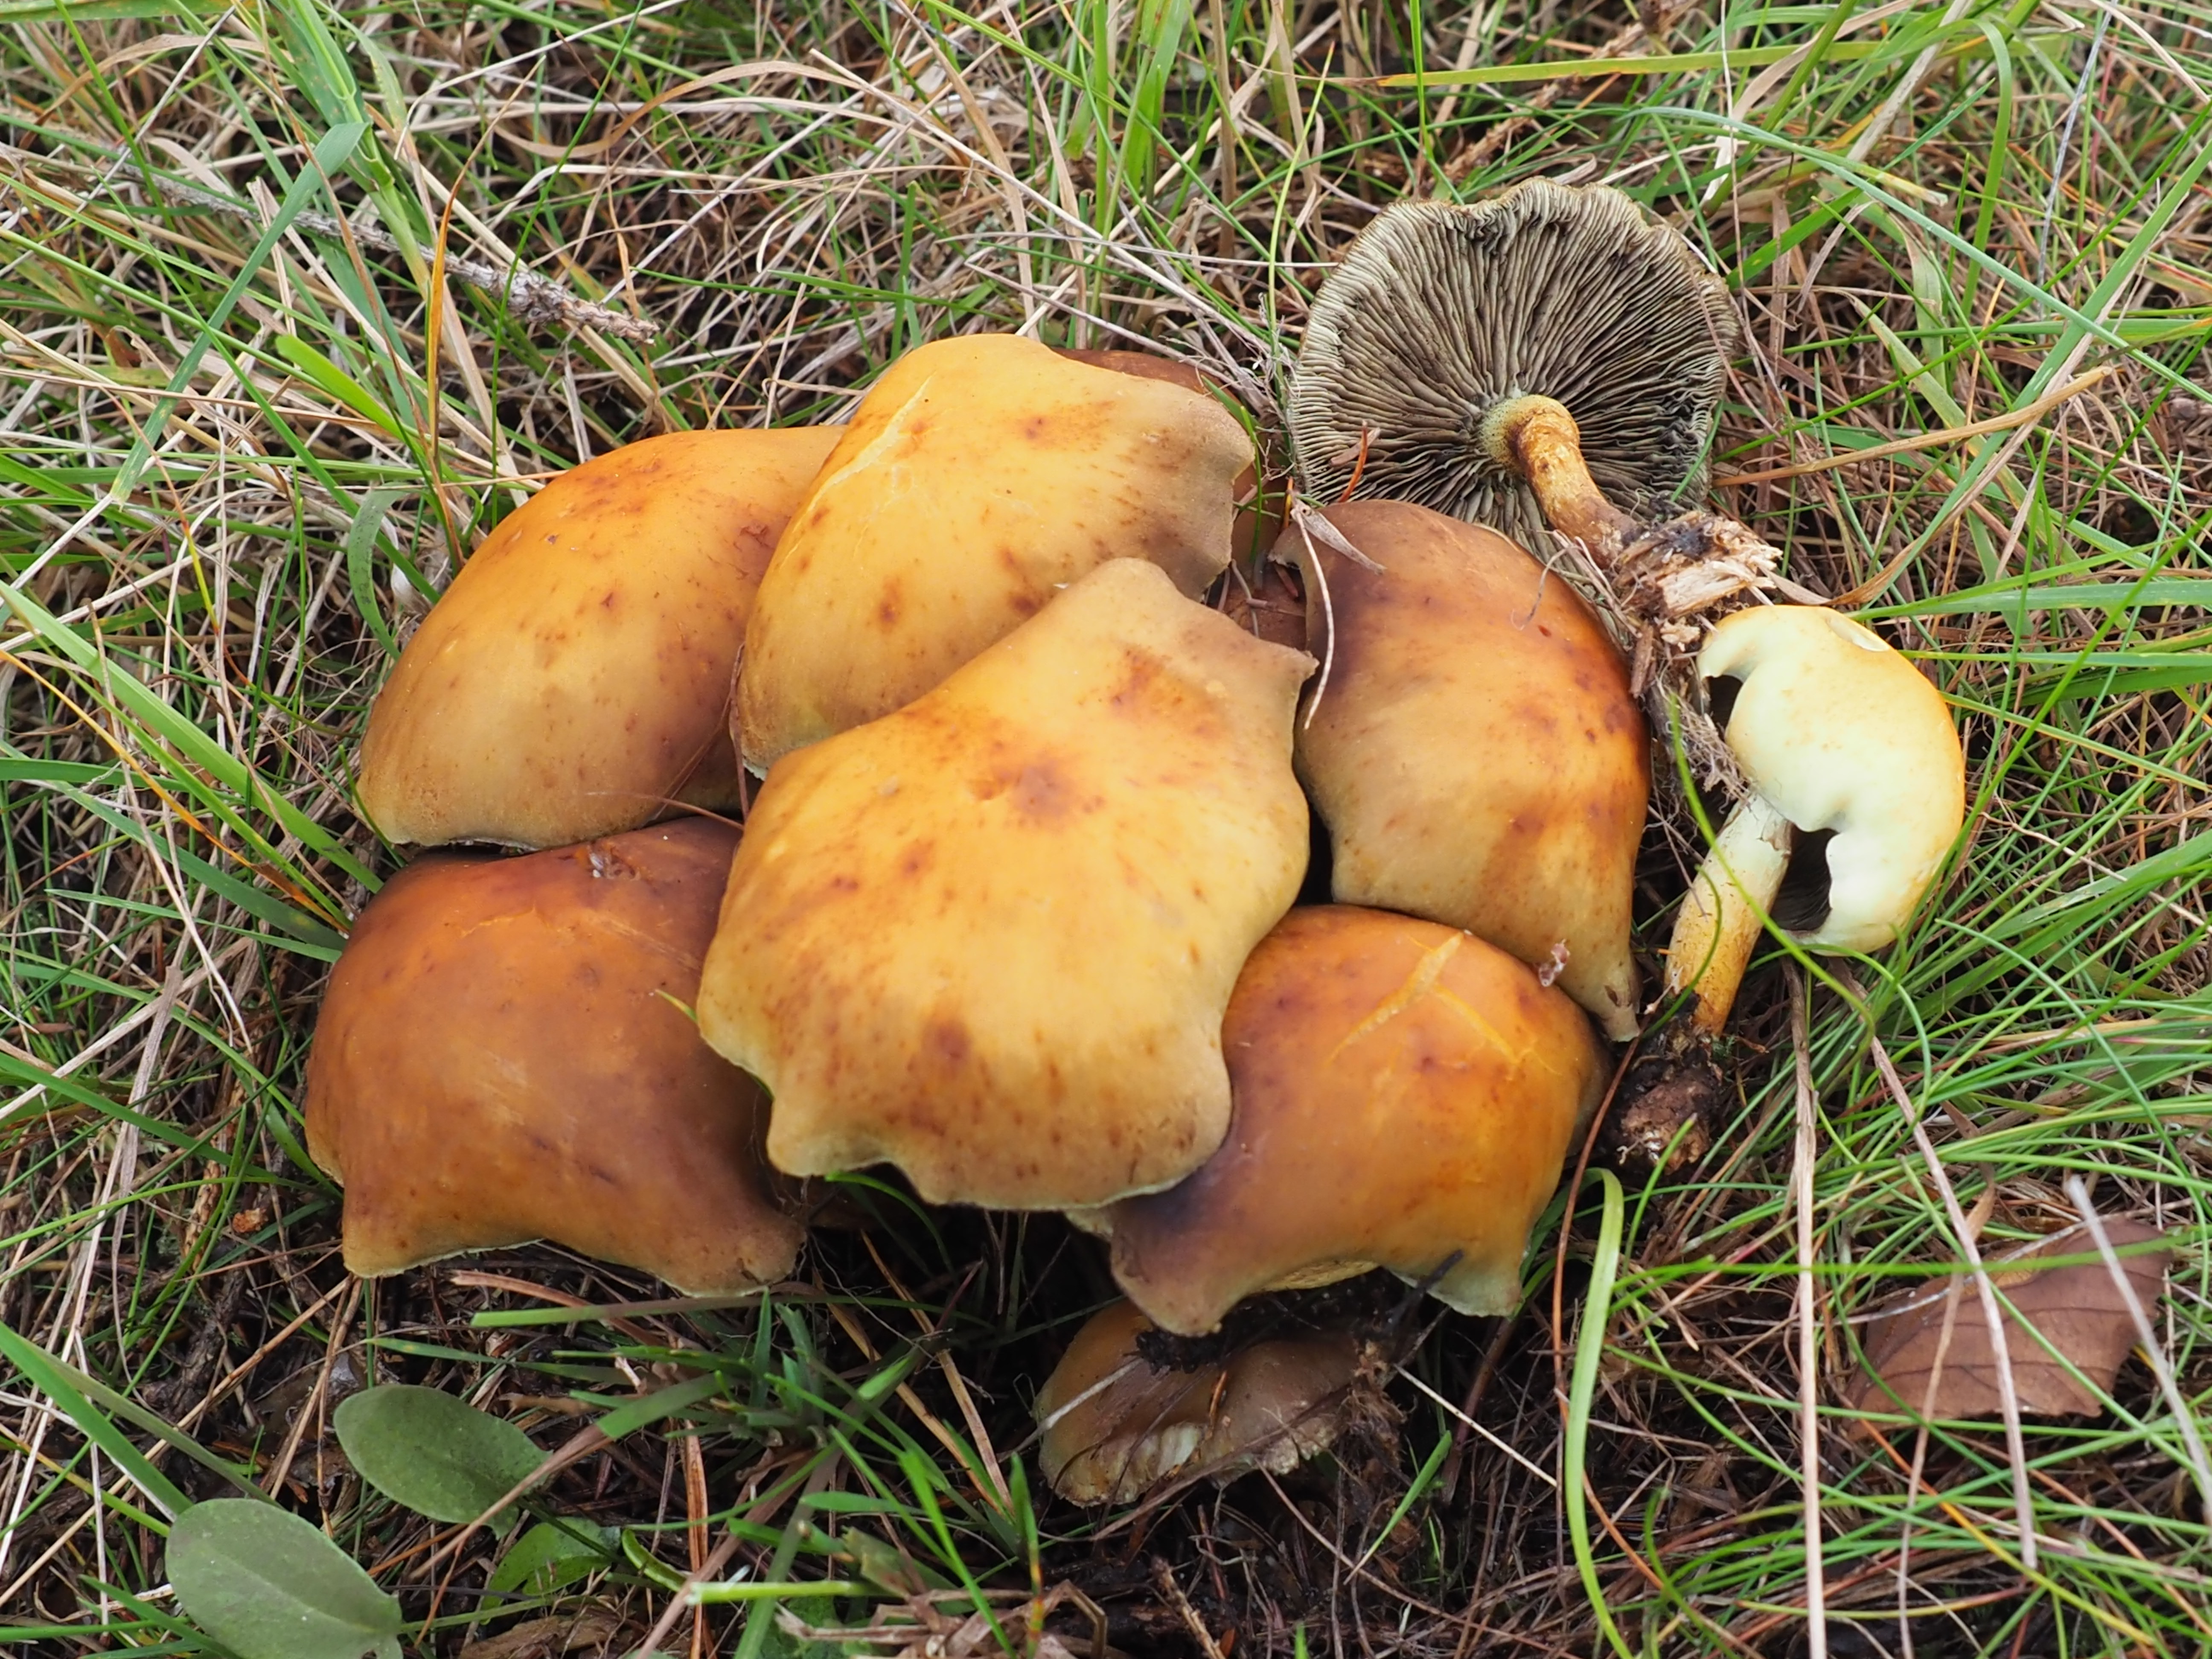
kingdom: Fungi
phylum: Basidiomycota
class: Agaricomycetes
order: Agaricales
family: Strophariaceae
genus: Hypholoma
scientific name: Hypholoma fasciculare
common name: Sulphur tuft
